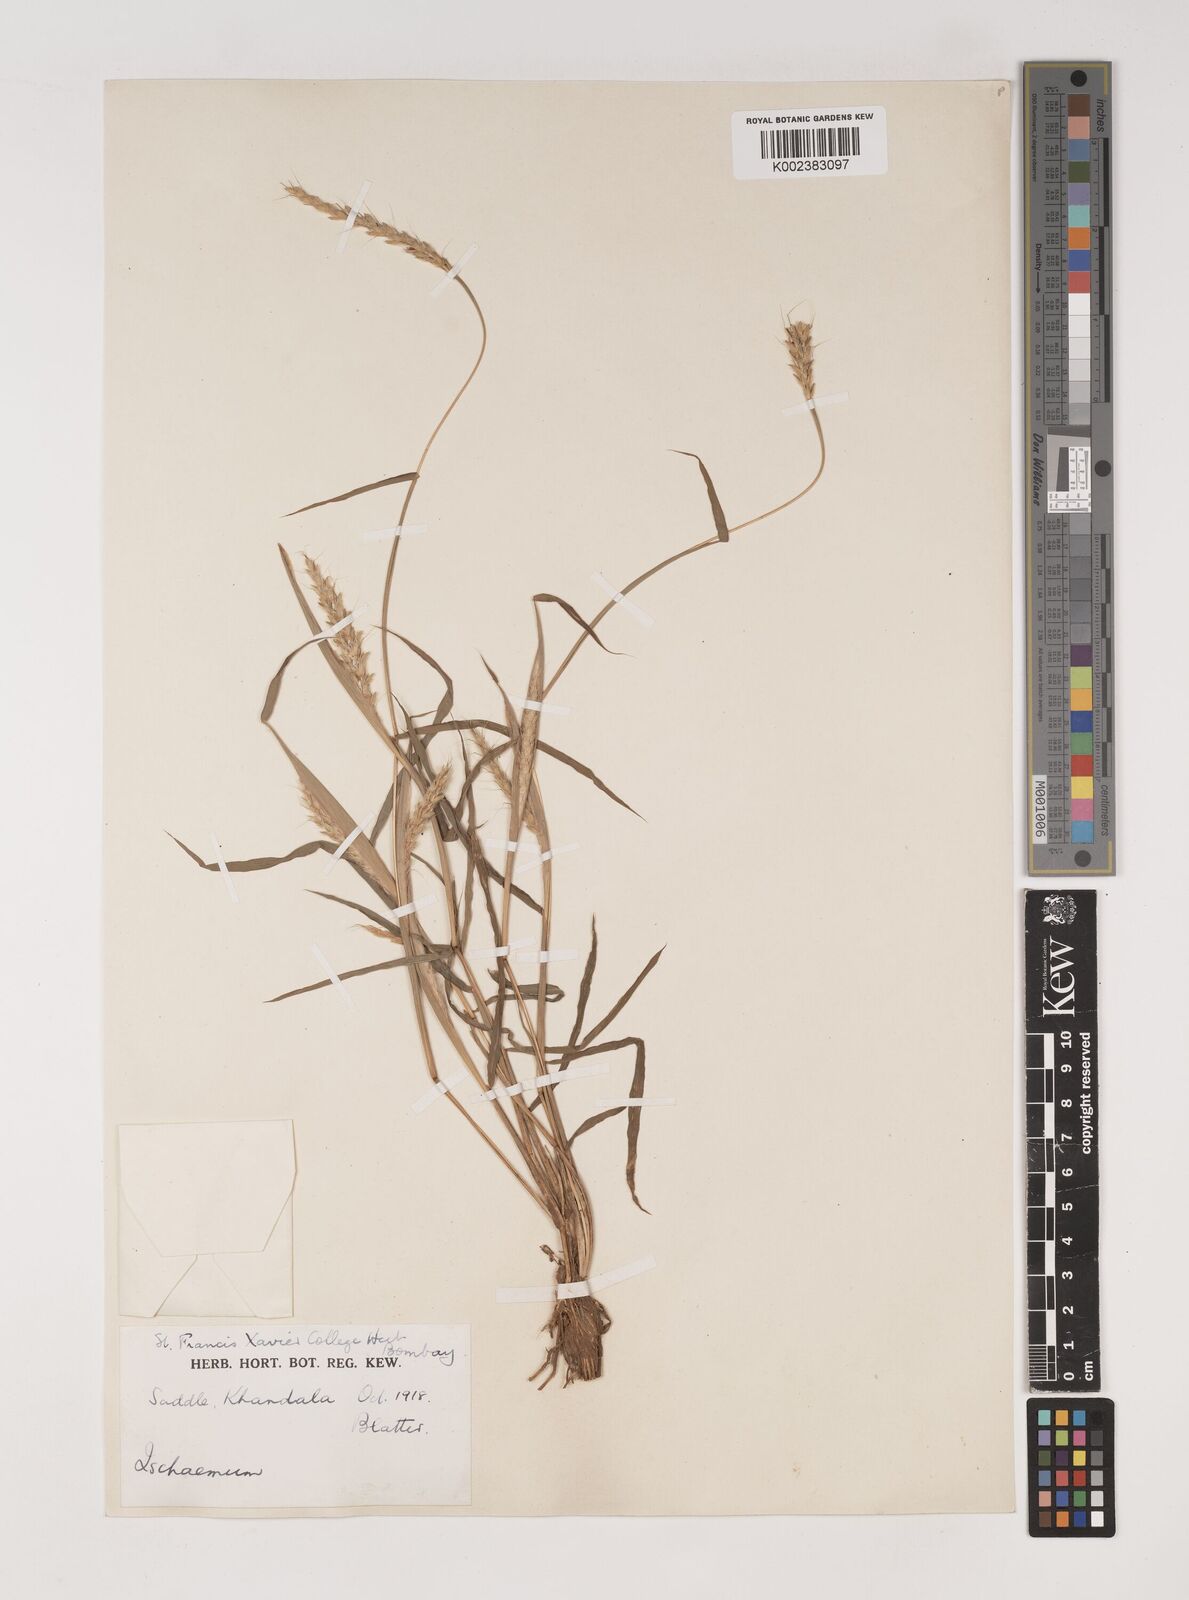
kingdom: Plantae
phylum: Tracheophyta
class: Liliopsida
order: Poales
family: Poaceae
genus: Ischaemum
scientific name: Ischaemum molle
